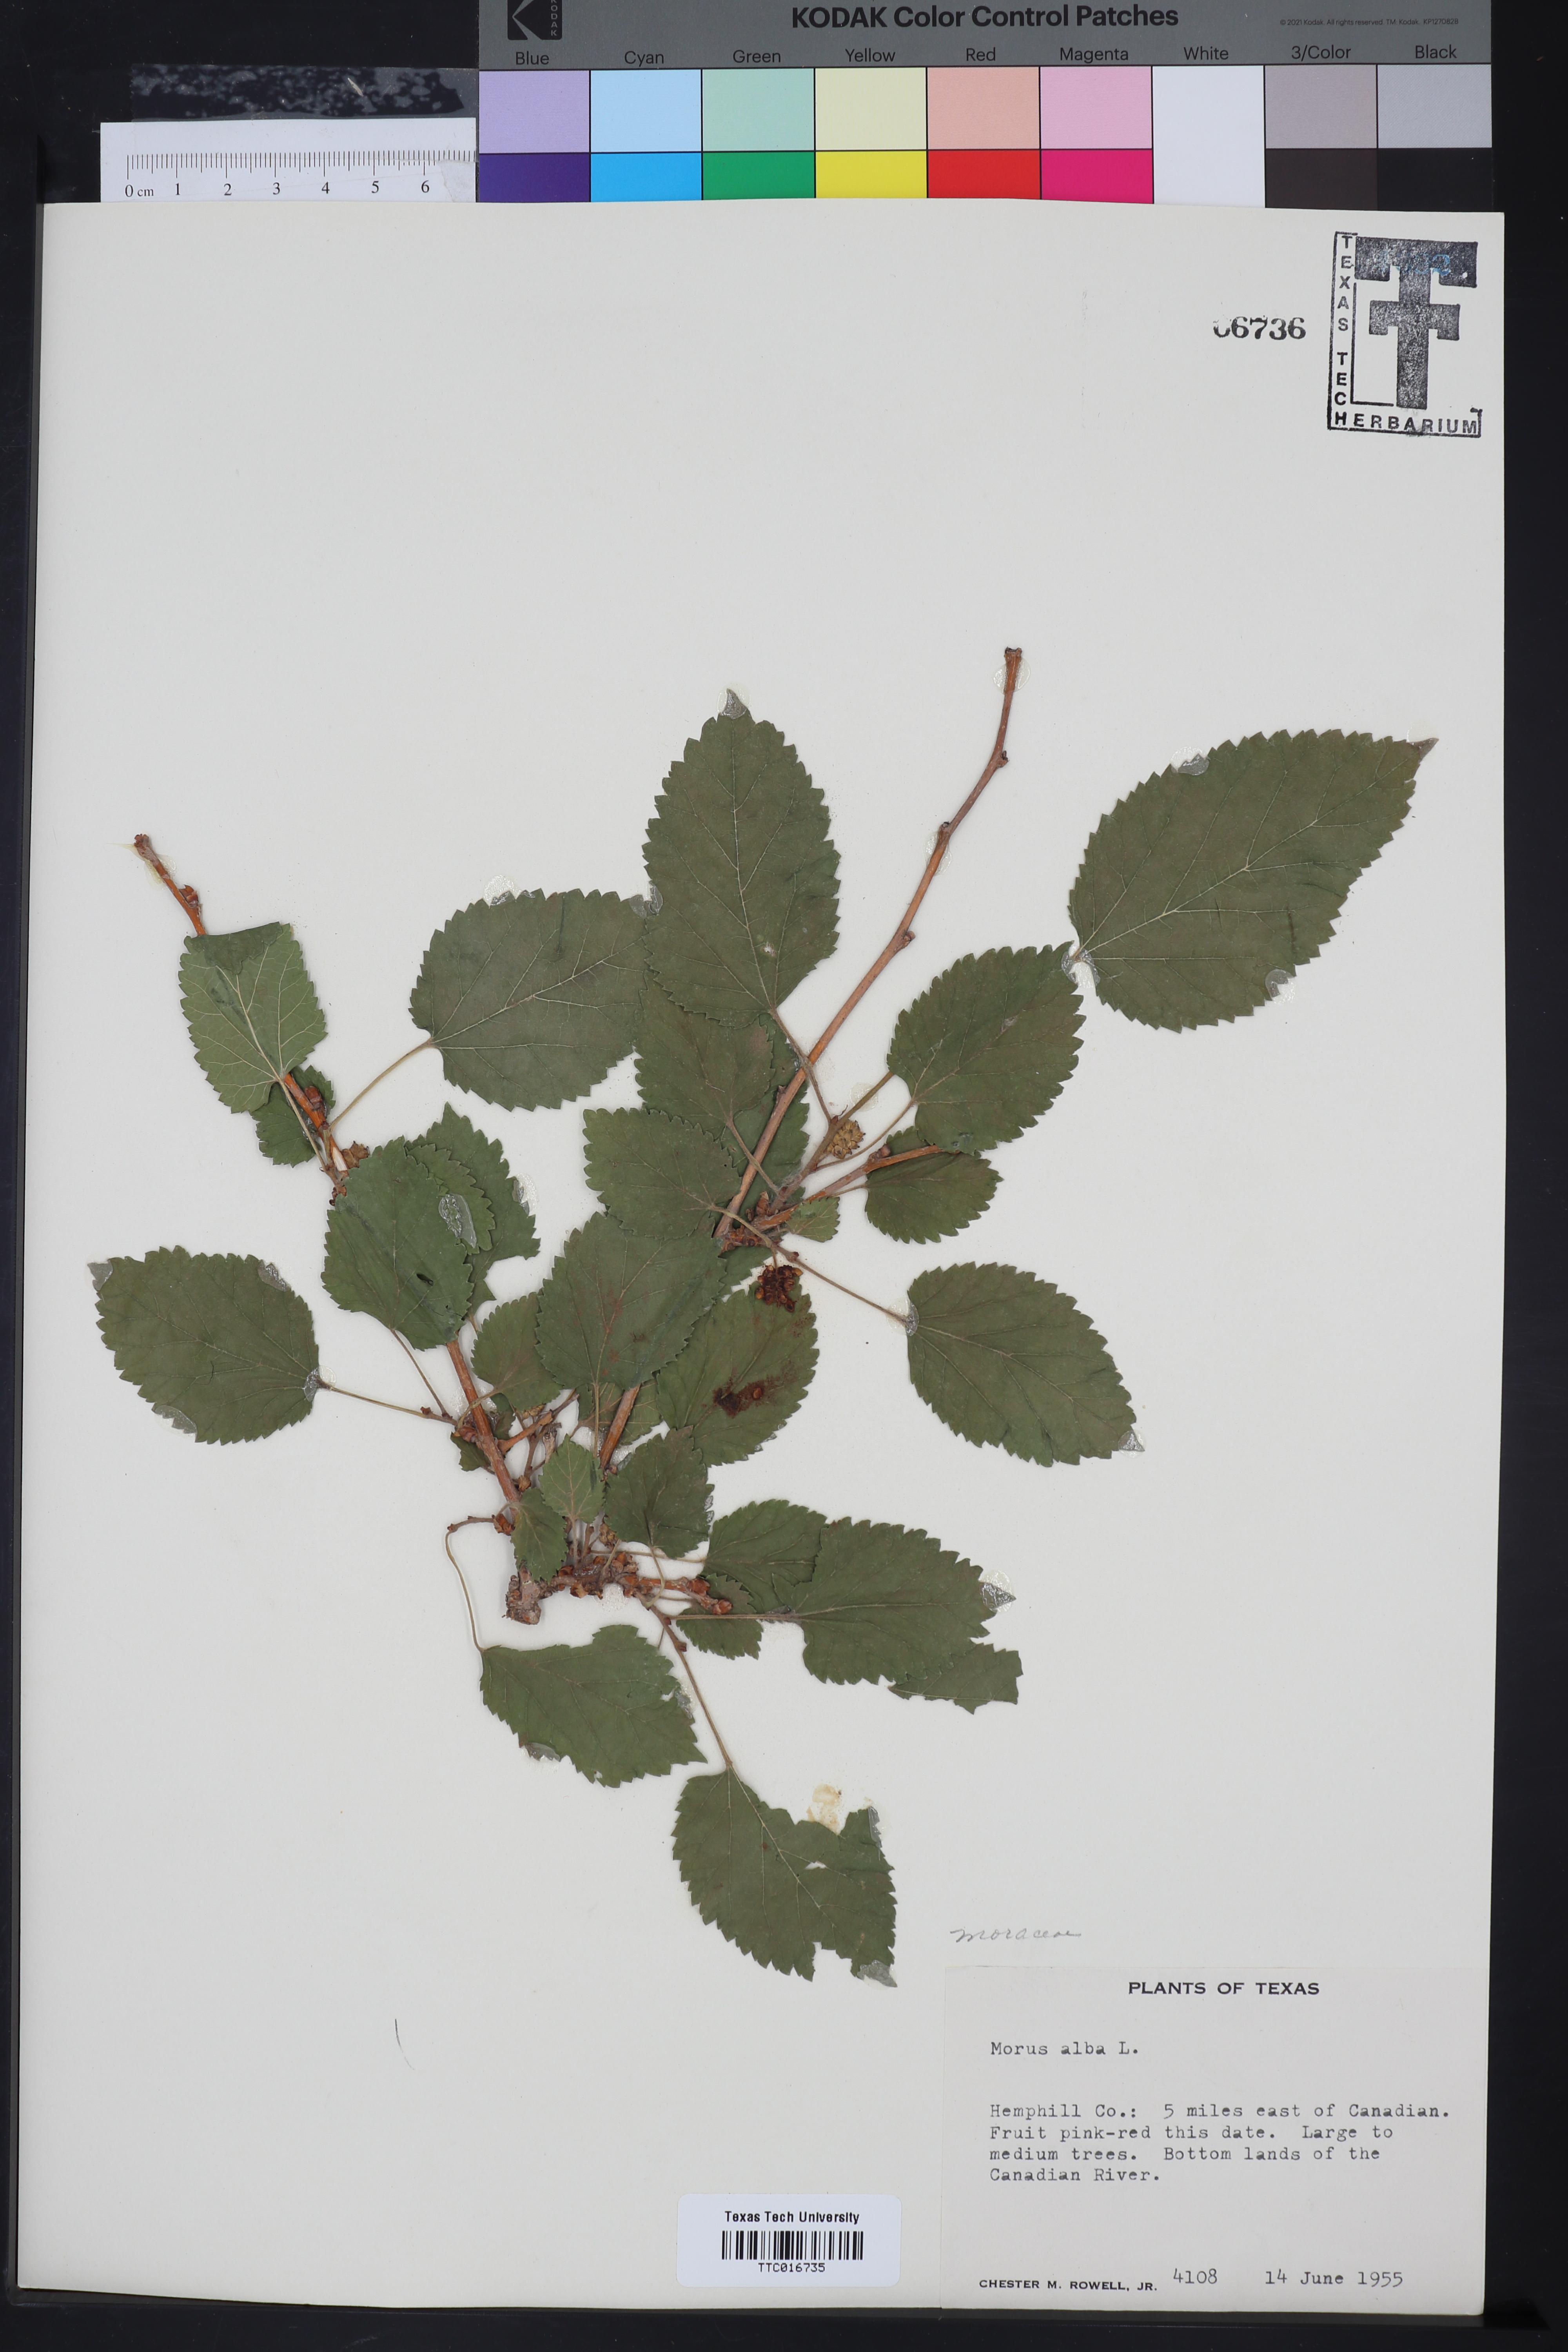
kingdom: Plantae
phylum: Tracheophyta
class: Magnoliopsida
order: Rosales
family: Moraceae
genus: Morus
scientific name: Morus alba
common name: White mulberry
